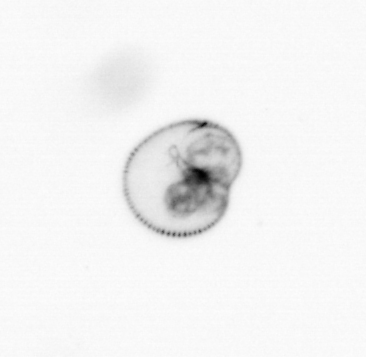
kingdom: Chromista
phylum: Myzozoa
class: Dinophyceae
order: Noctilucales
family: Noctilucaceae
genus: Noctiluca
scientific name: Noctiluca scintillans
